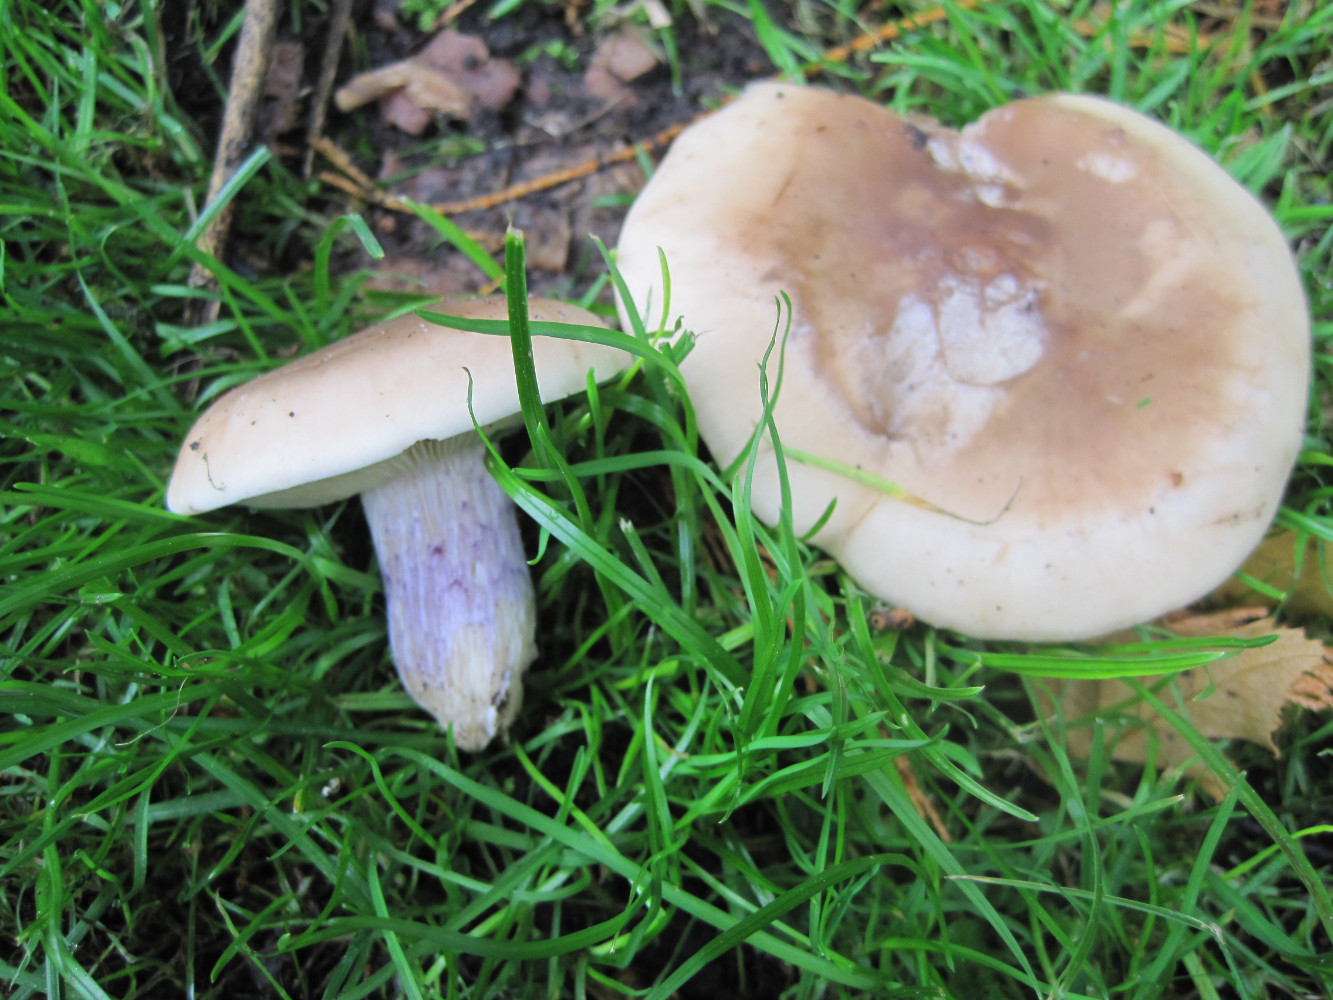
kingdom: Fungi
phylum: Basidiomycota
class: Agaricomycetes
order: Agaricales
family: Tricholomataceae
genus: Lepista
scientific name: Lepista personata
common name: bleg hekseringshat
